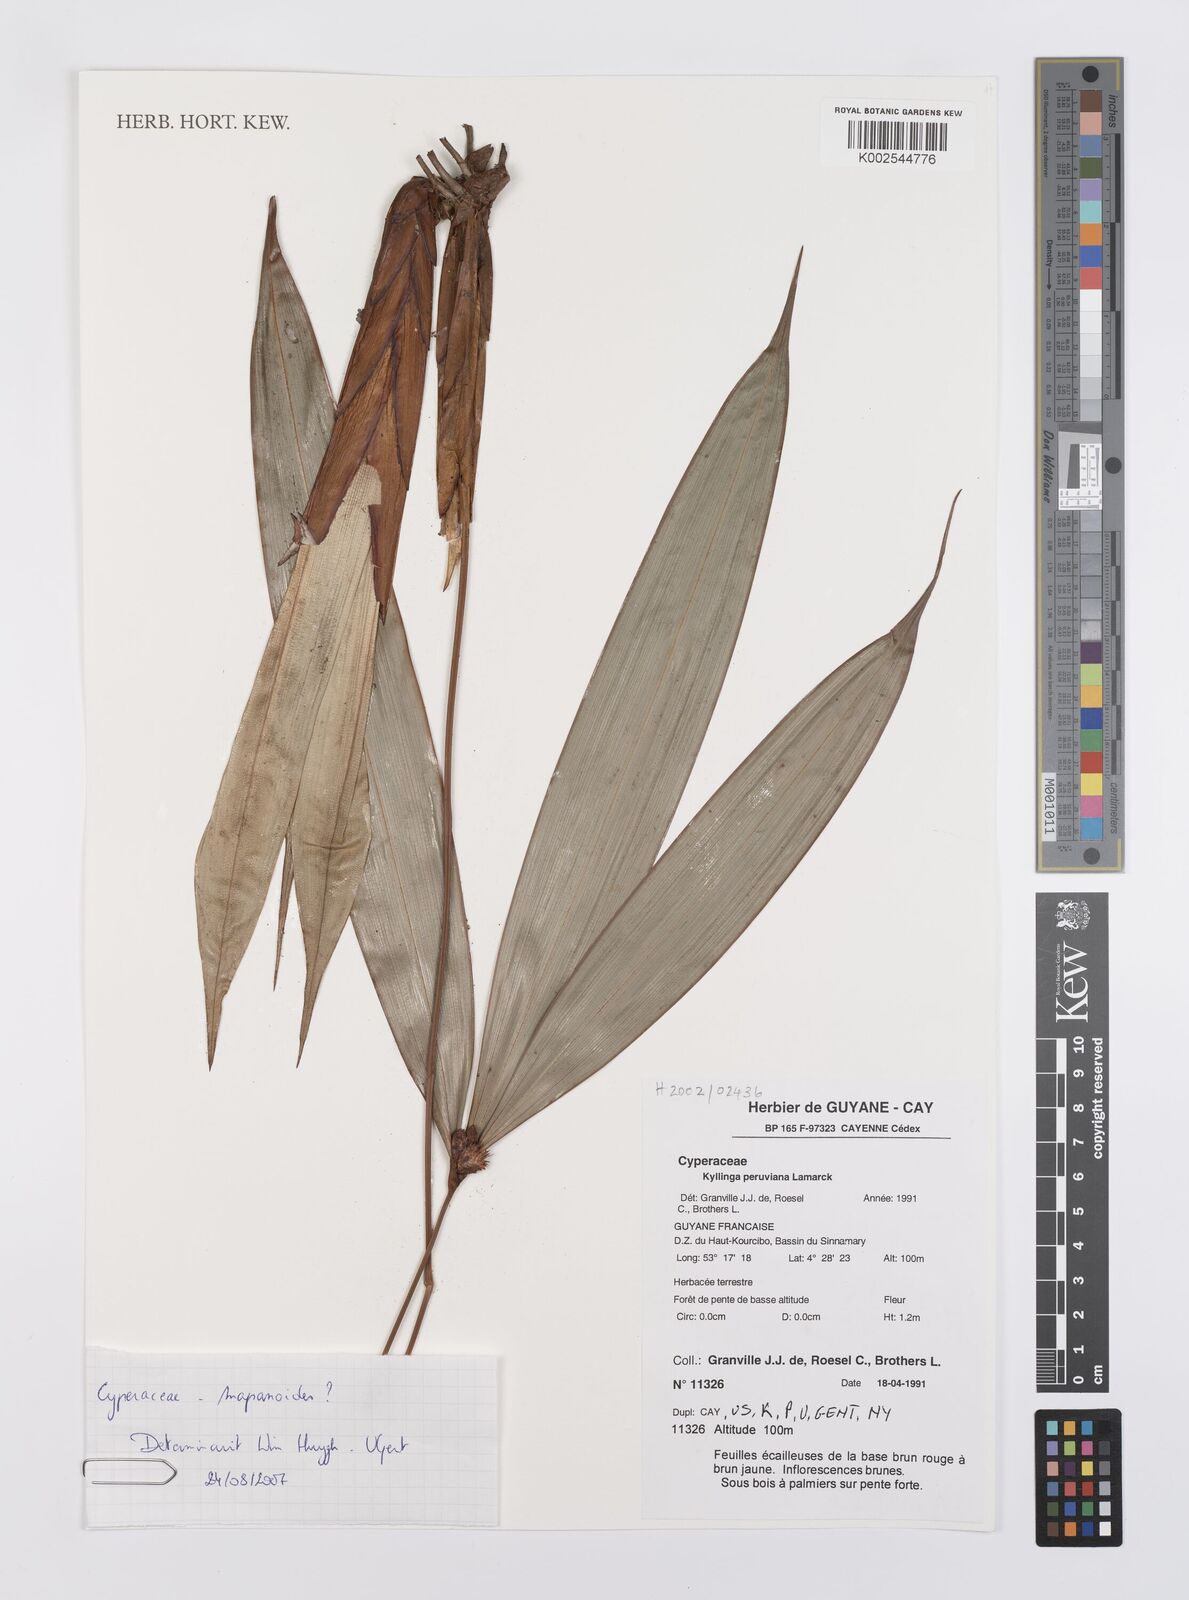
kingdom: Plantae
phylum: Tracheophyta
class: Liliopsida
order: Poales
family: Cyperaceae
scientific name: Cyperaceae
